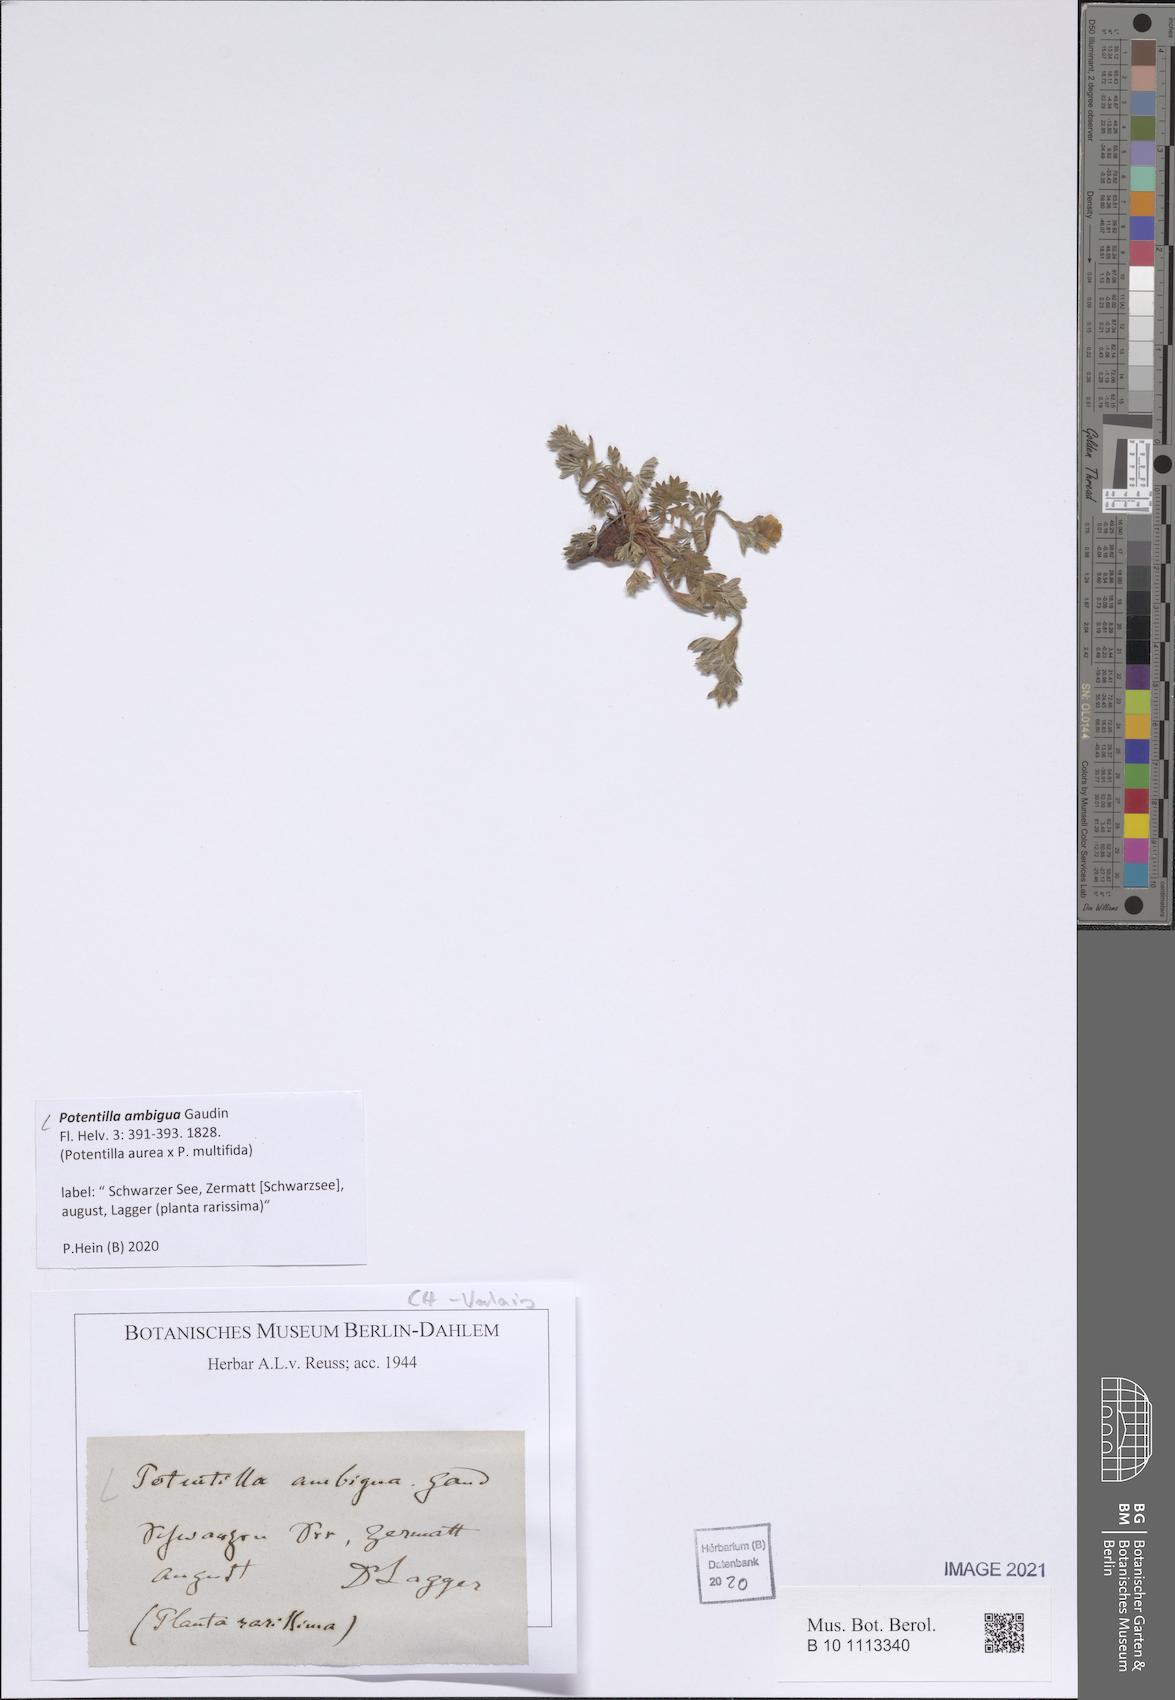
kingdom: Plantae
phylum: Tracheophyta
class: Magnoliopsida
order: Rosales
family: Rosaceae
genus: Potentilla
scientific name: Potentilla aurea
